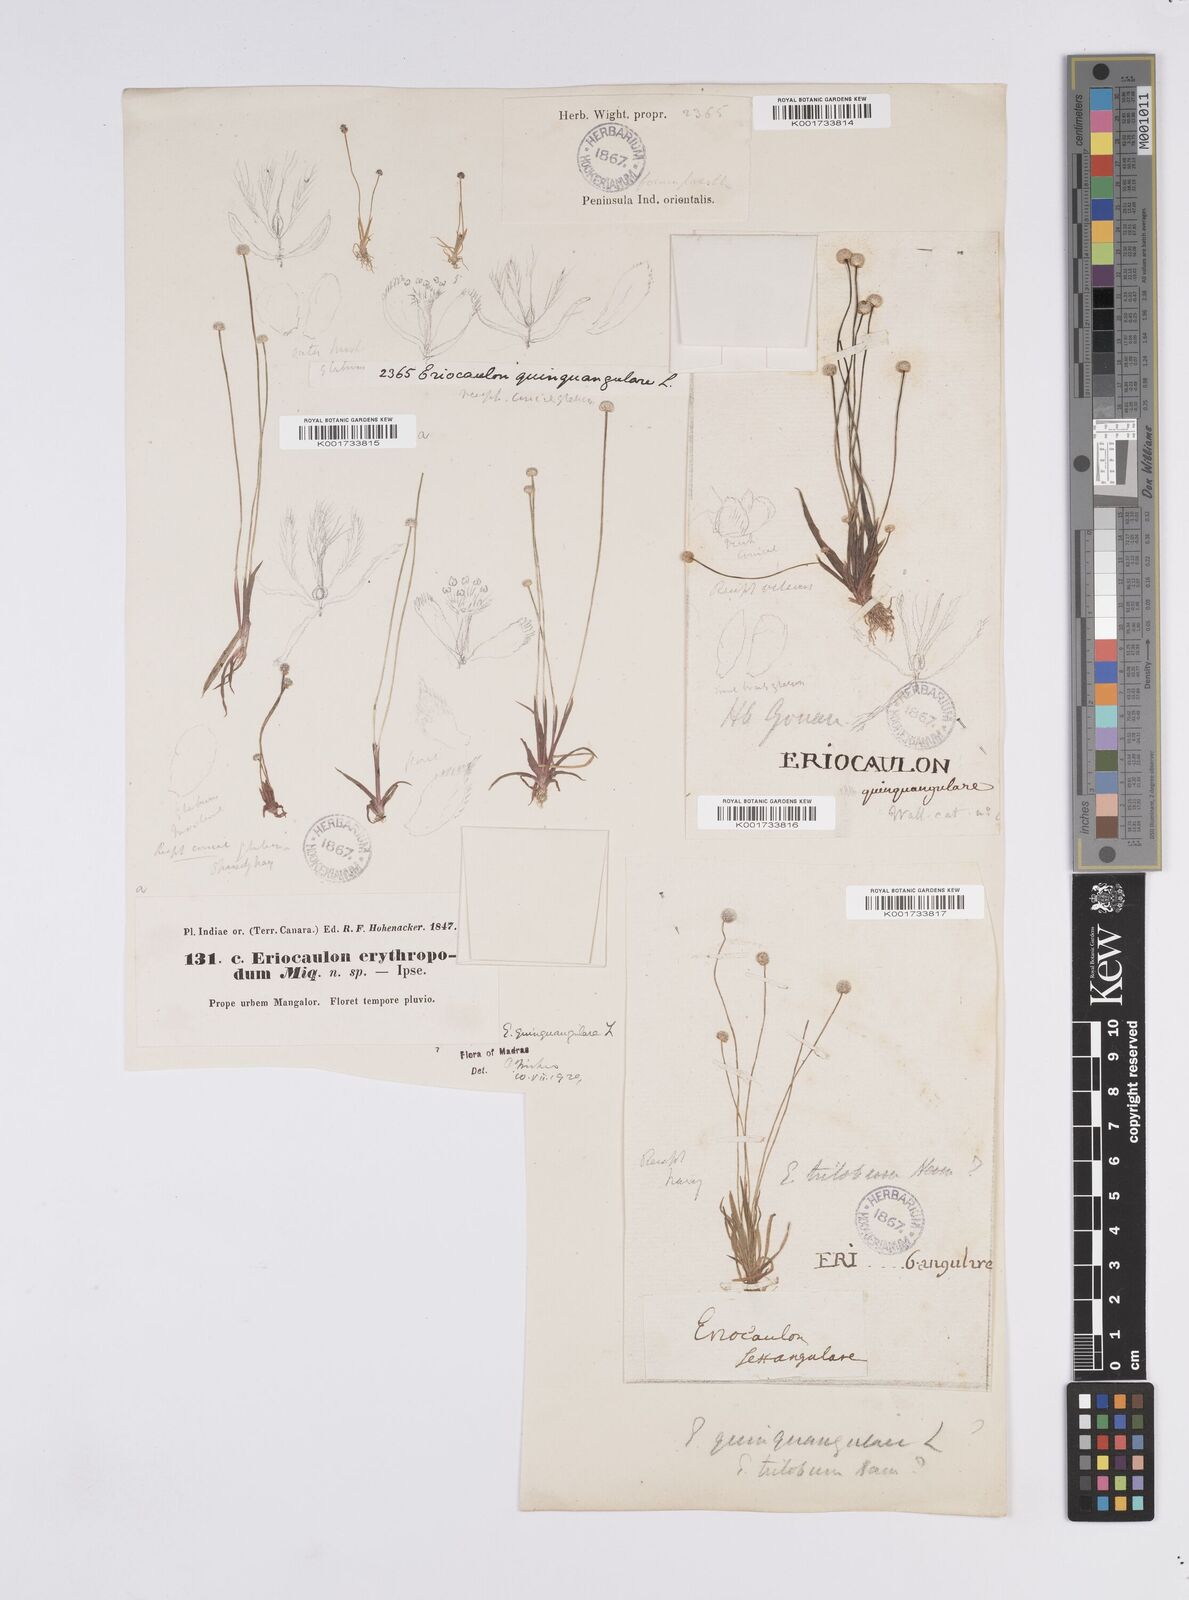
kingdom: Plantae
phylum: Tracheophyta
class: Liliopsida
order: Poales
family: Eriocaulaceae
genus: Eriocaulon
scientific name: Eriocaulon quinquangulare
